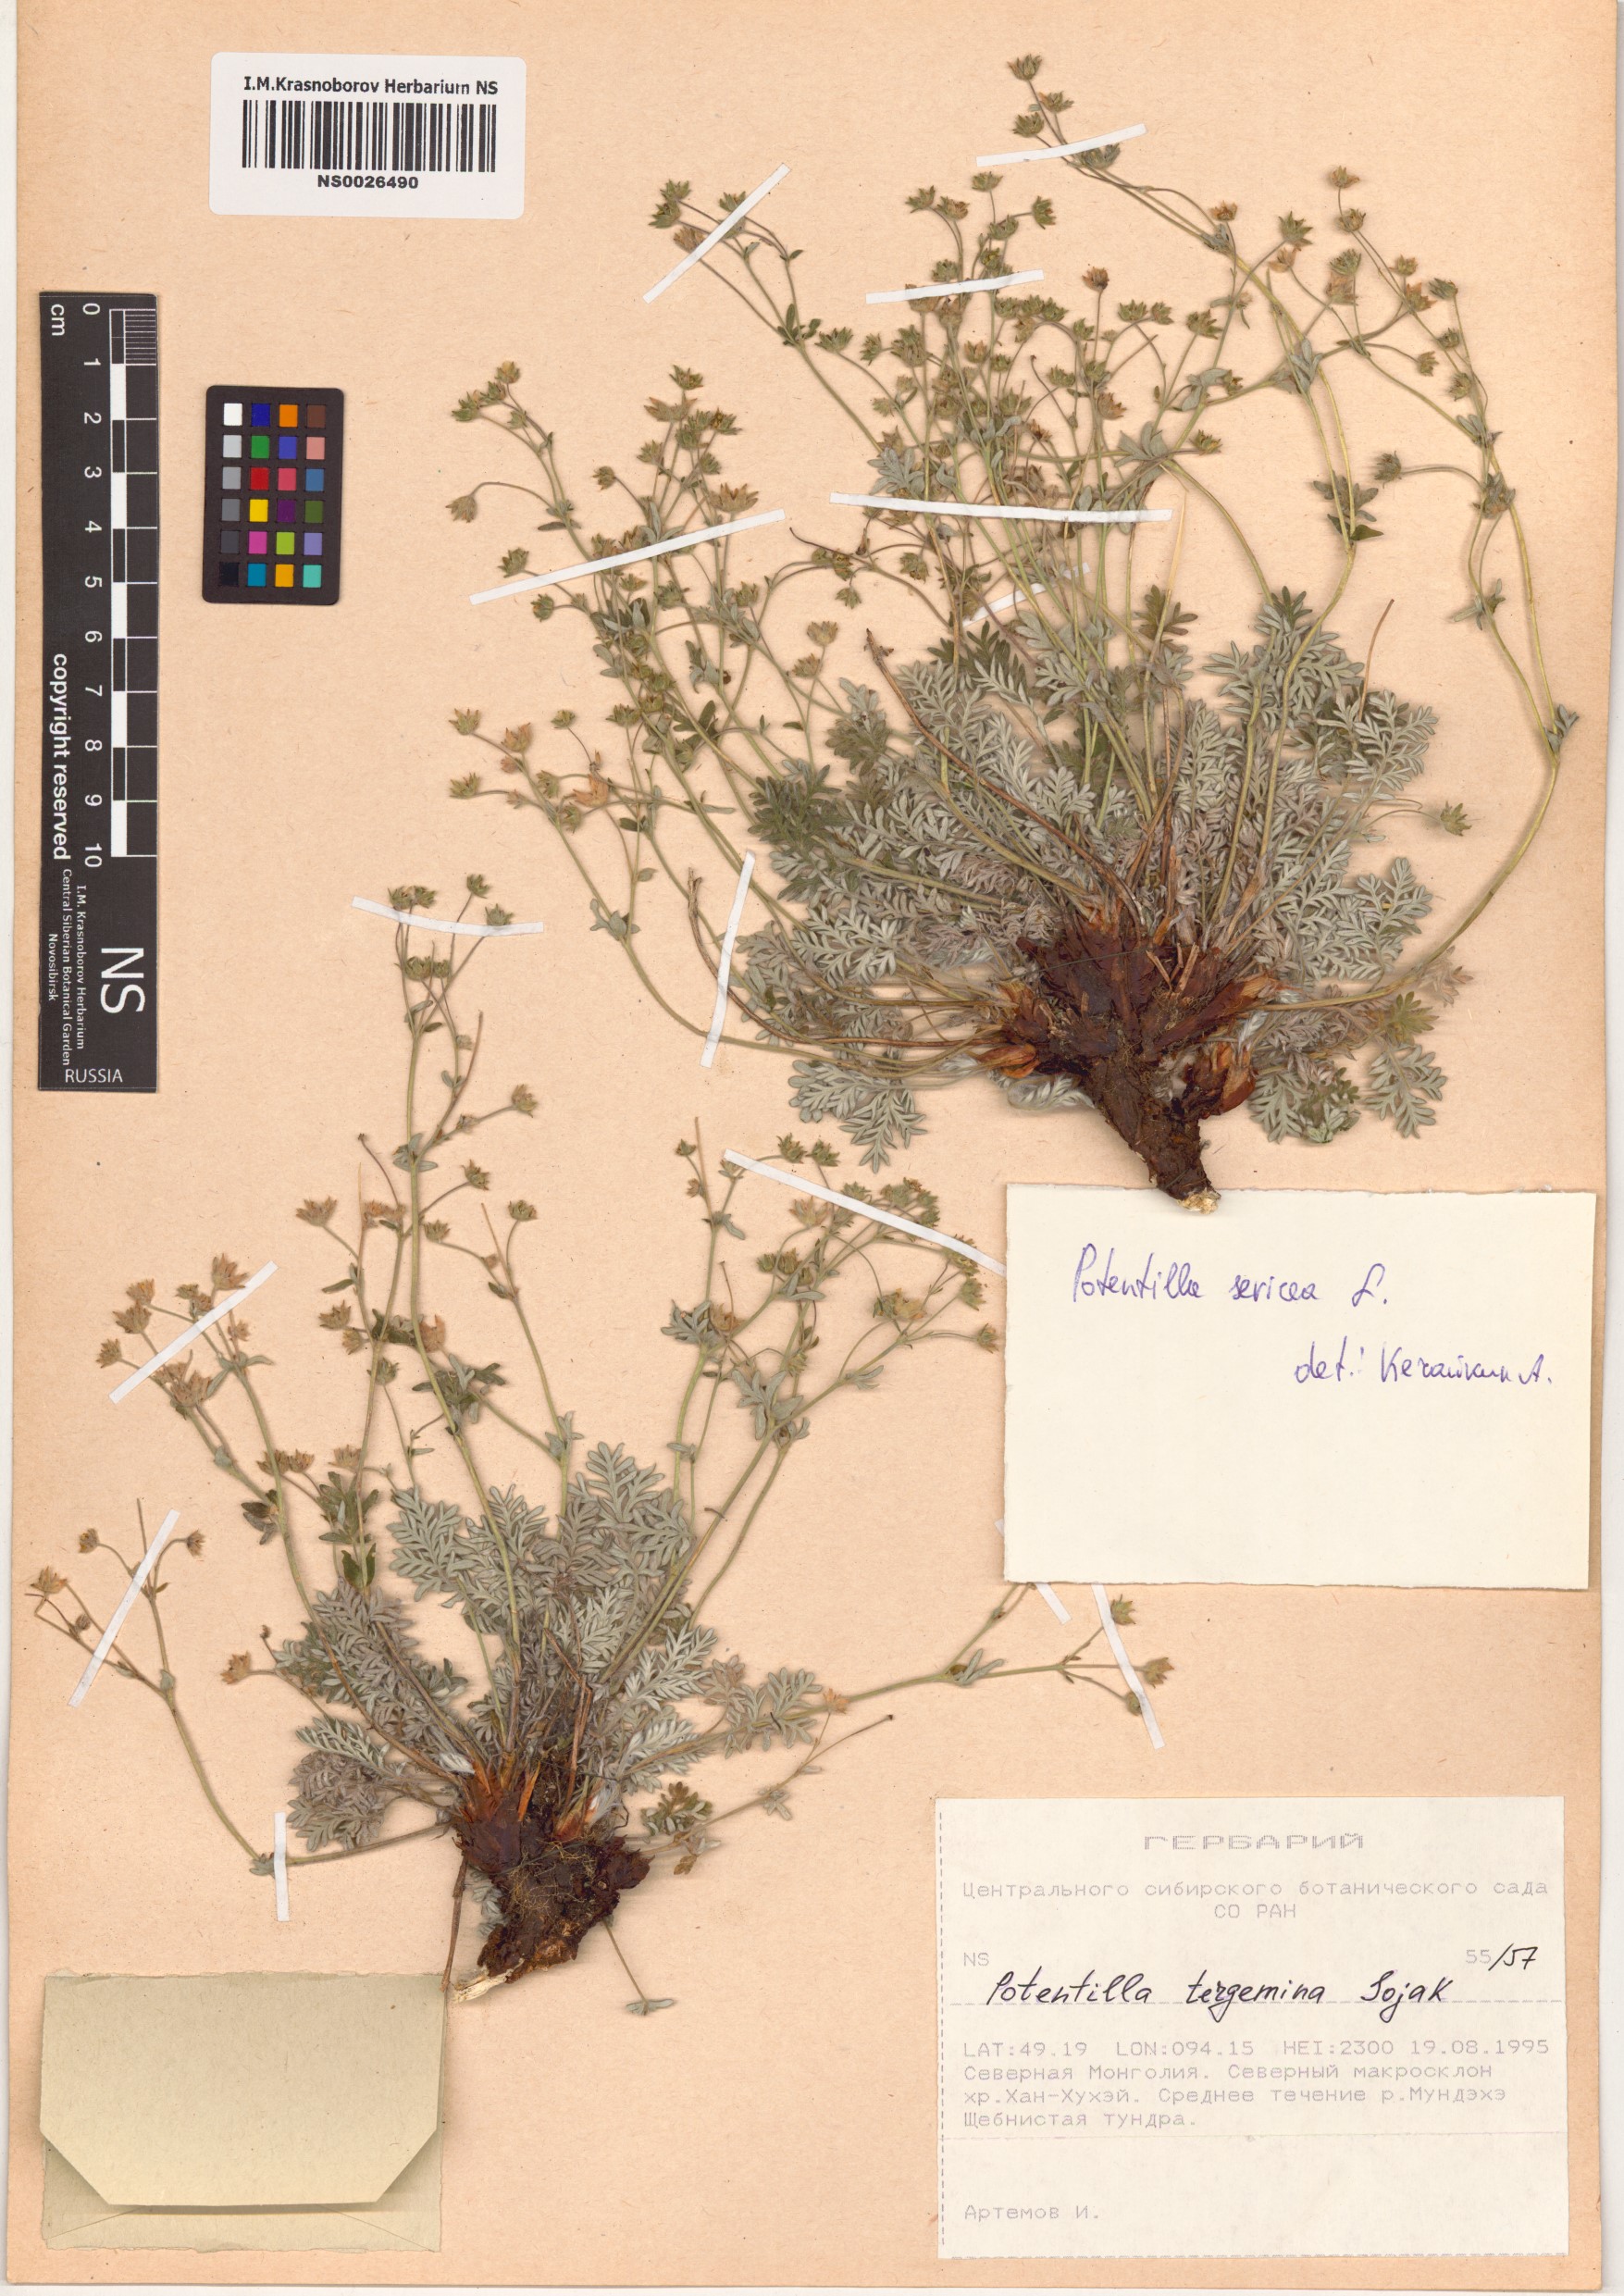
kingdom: Plantae
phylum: Tracheophyta
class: Magnoliopsida
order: Rosales
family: Rosaceae
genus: Potentilla
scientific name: Potentilla sericea
